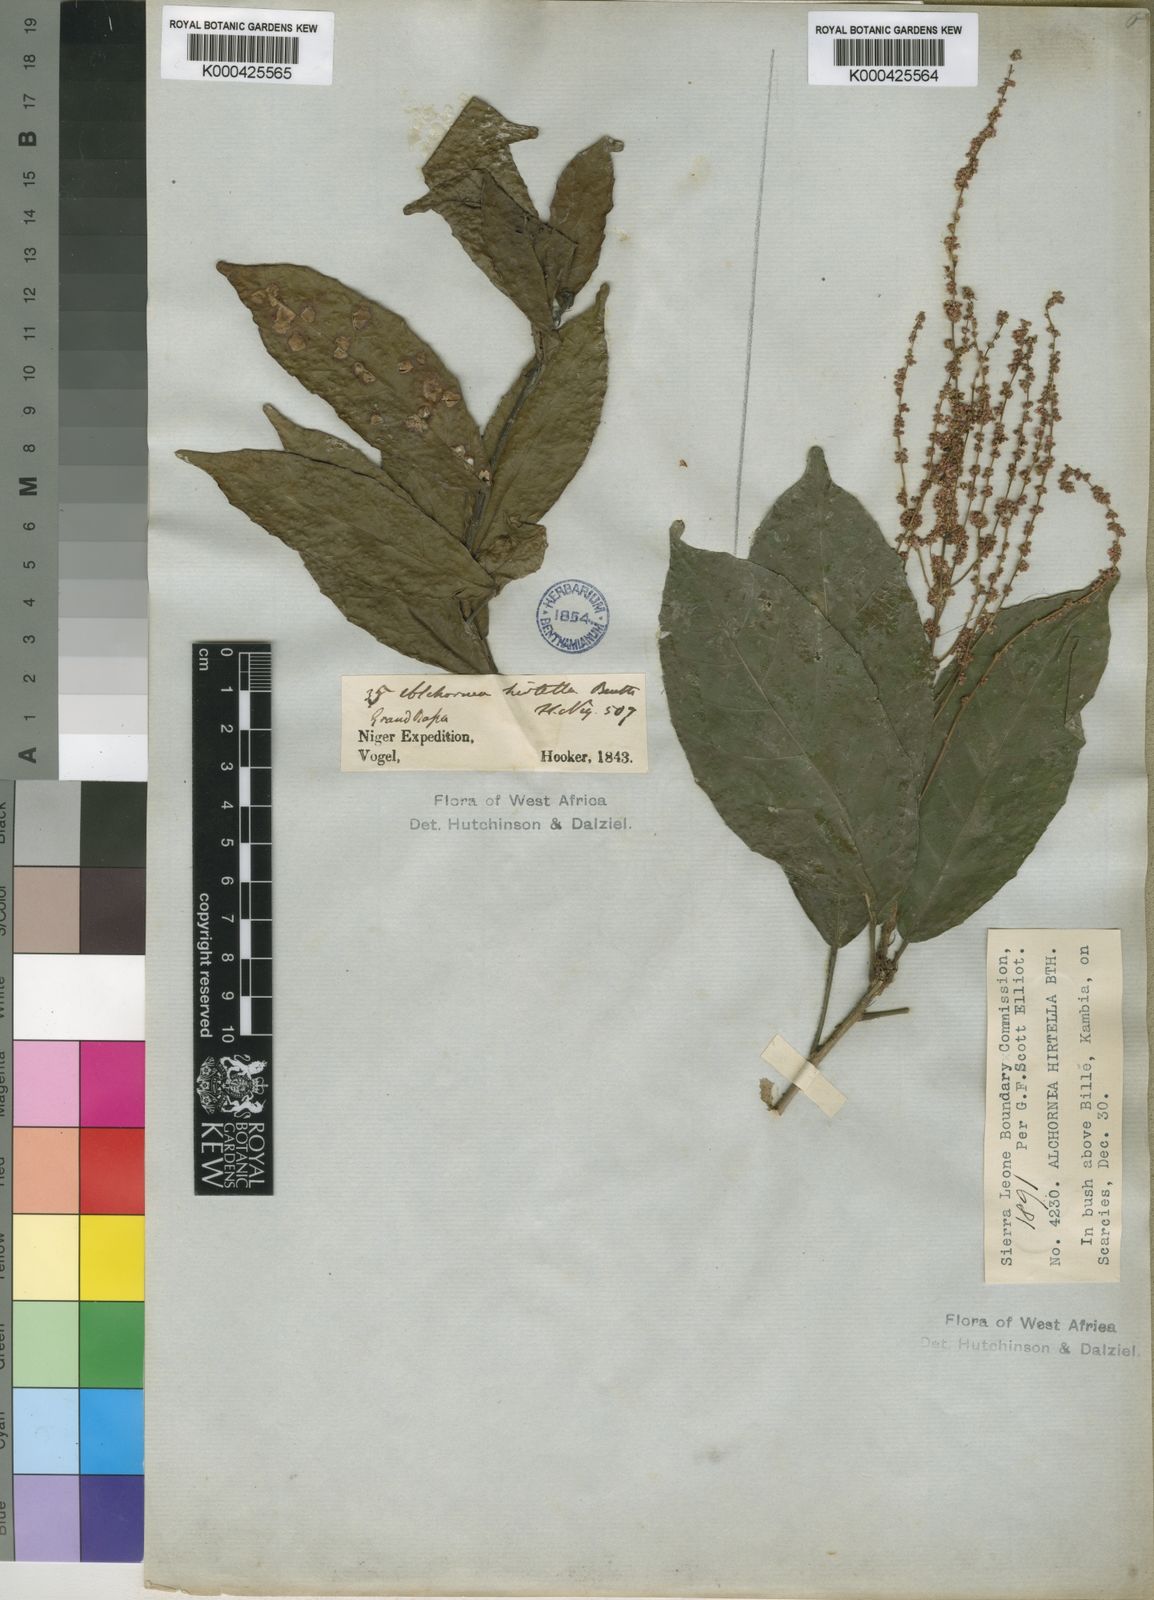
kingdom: Plantae
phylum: Tracheophyta
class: Magnoliopsida
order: Malpighiales
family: Euphorbiaceae
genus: Alchornea
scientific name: Alchornea hirtella
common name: Forest bead-string
